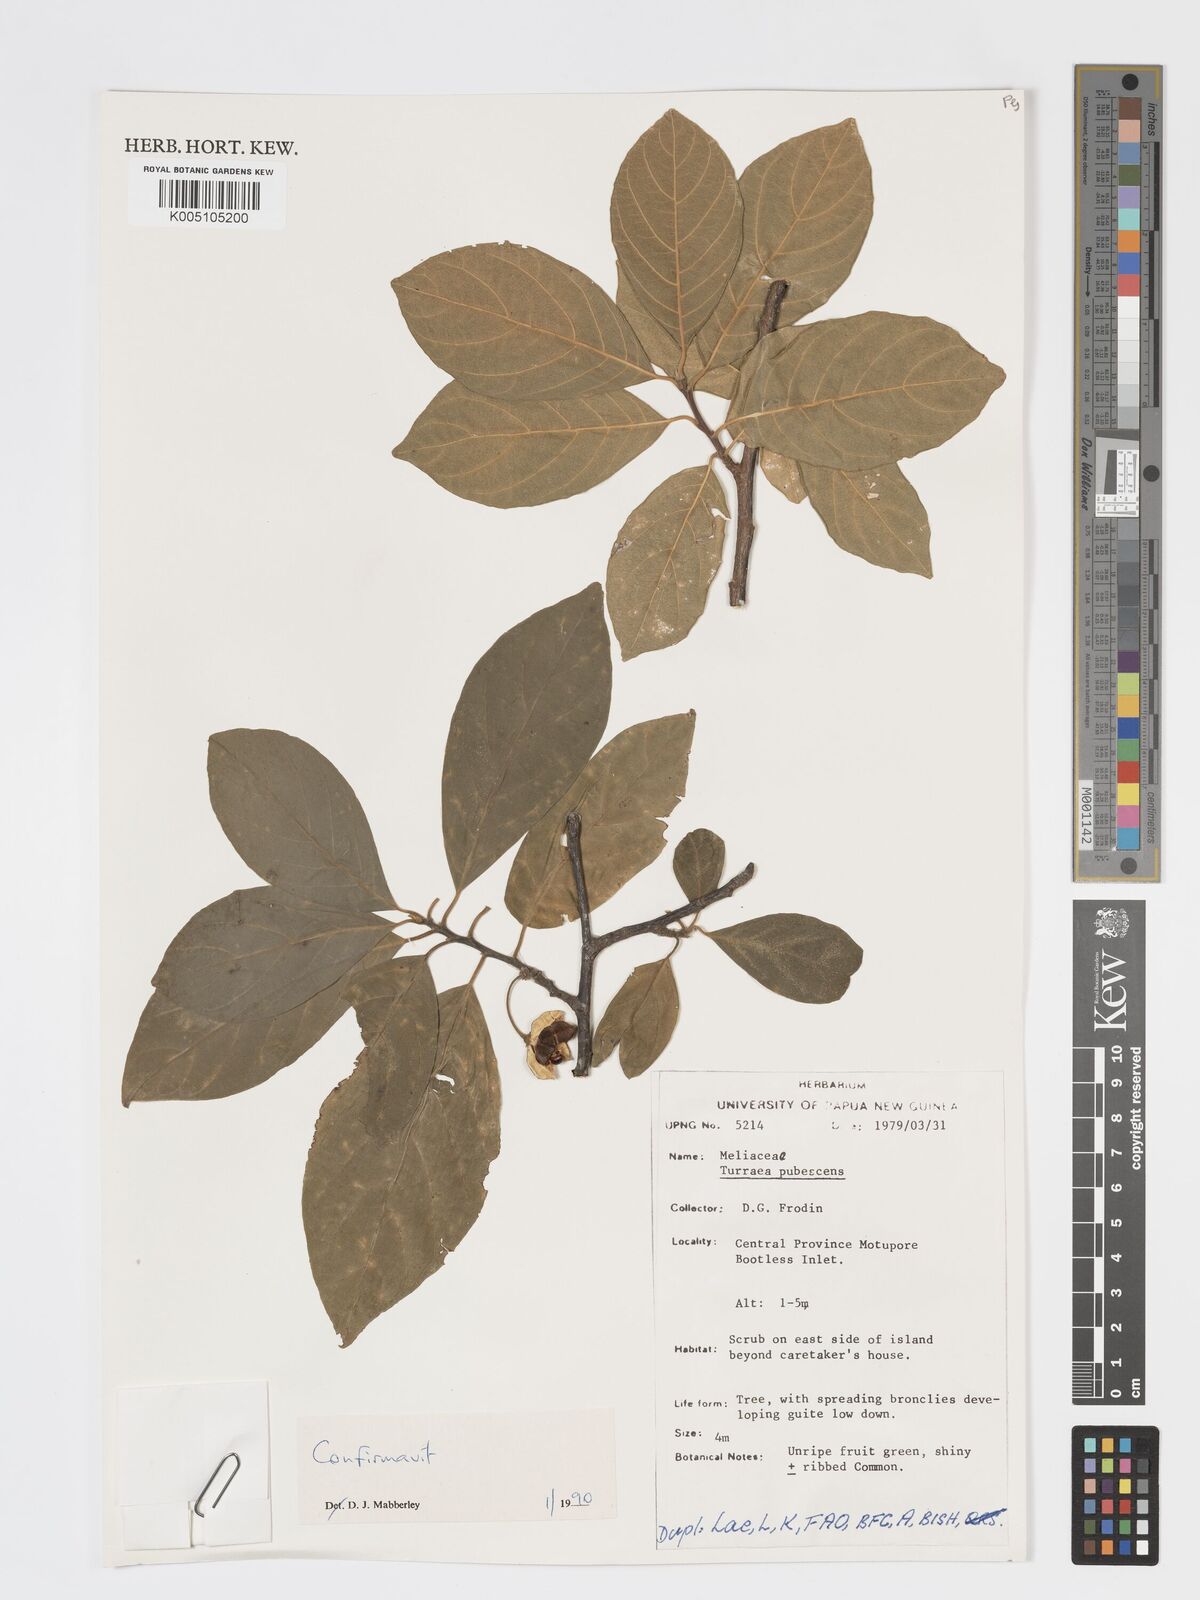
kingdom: Plantae
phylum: Tracheophyta
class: Magnoliopsida
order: Sapindales
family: Meliaceae
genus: Turraea
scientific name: Turraea
